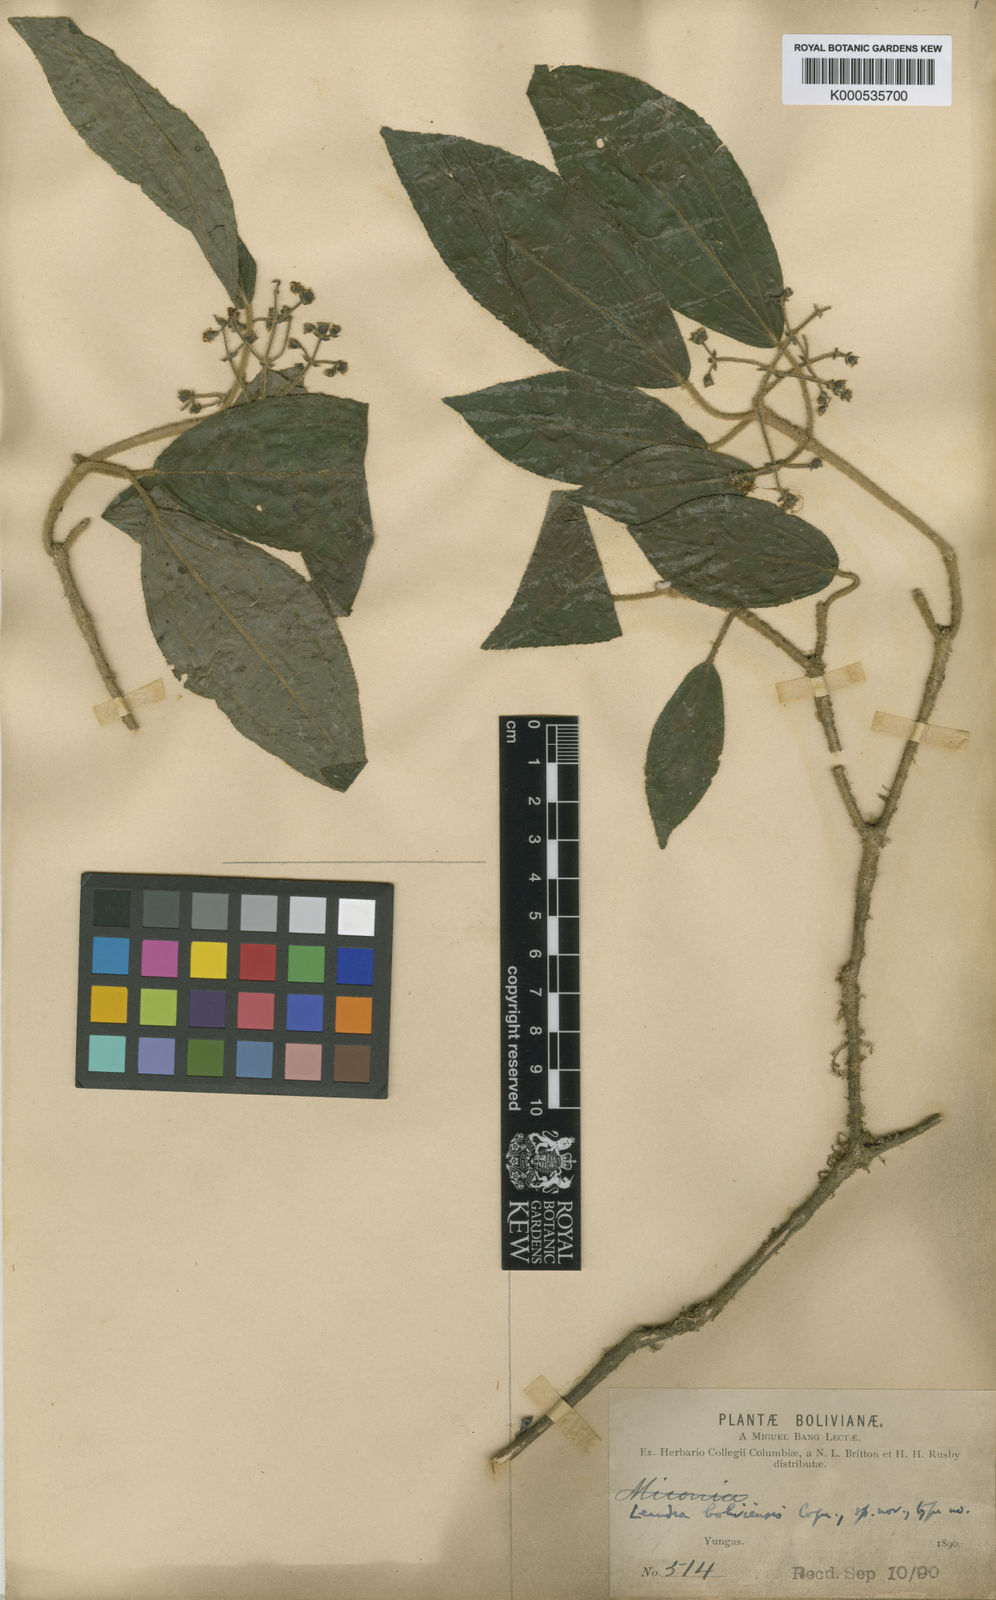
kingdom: Plantae
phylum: Tracheophyta
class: Magnoliopsida
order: Myrtales
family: Melastomataceae
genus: Miconia
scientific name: Miconia yungasensis
